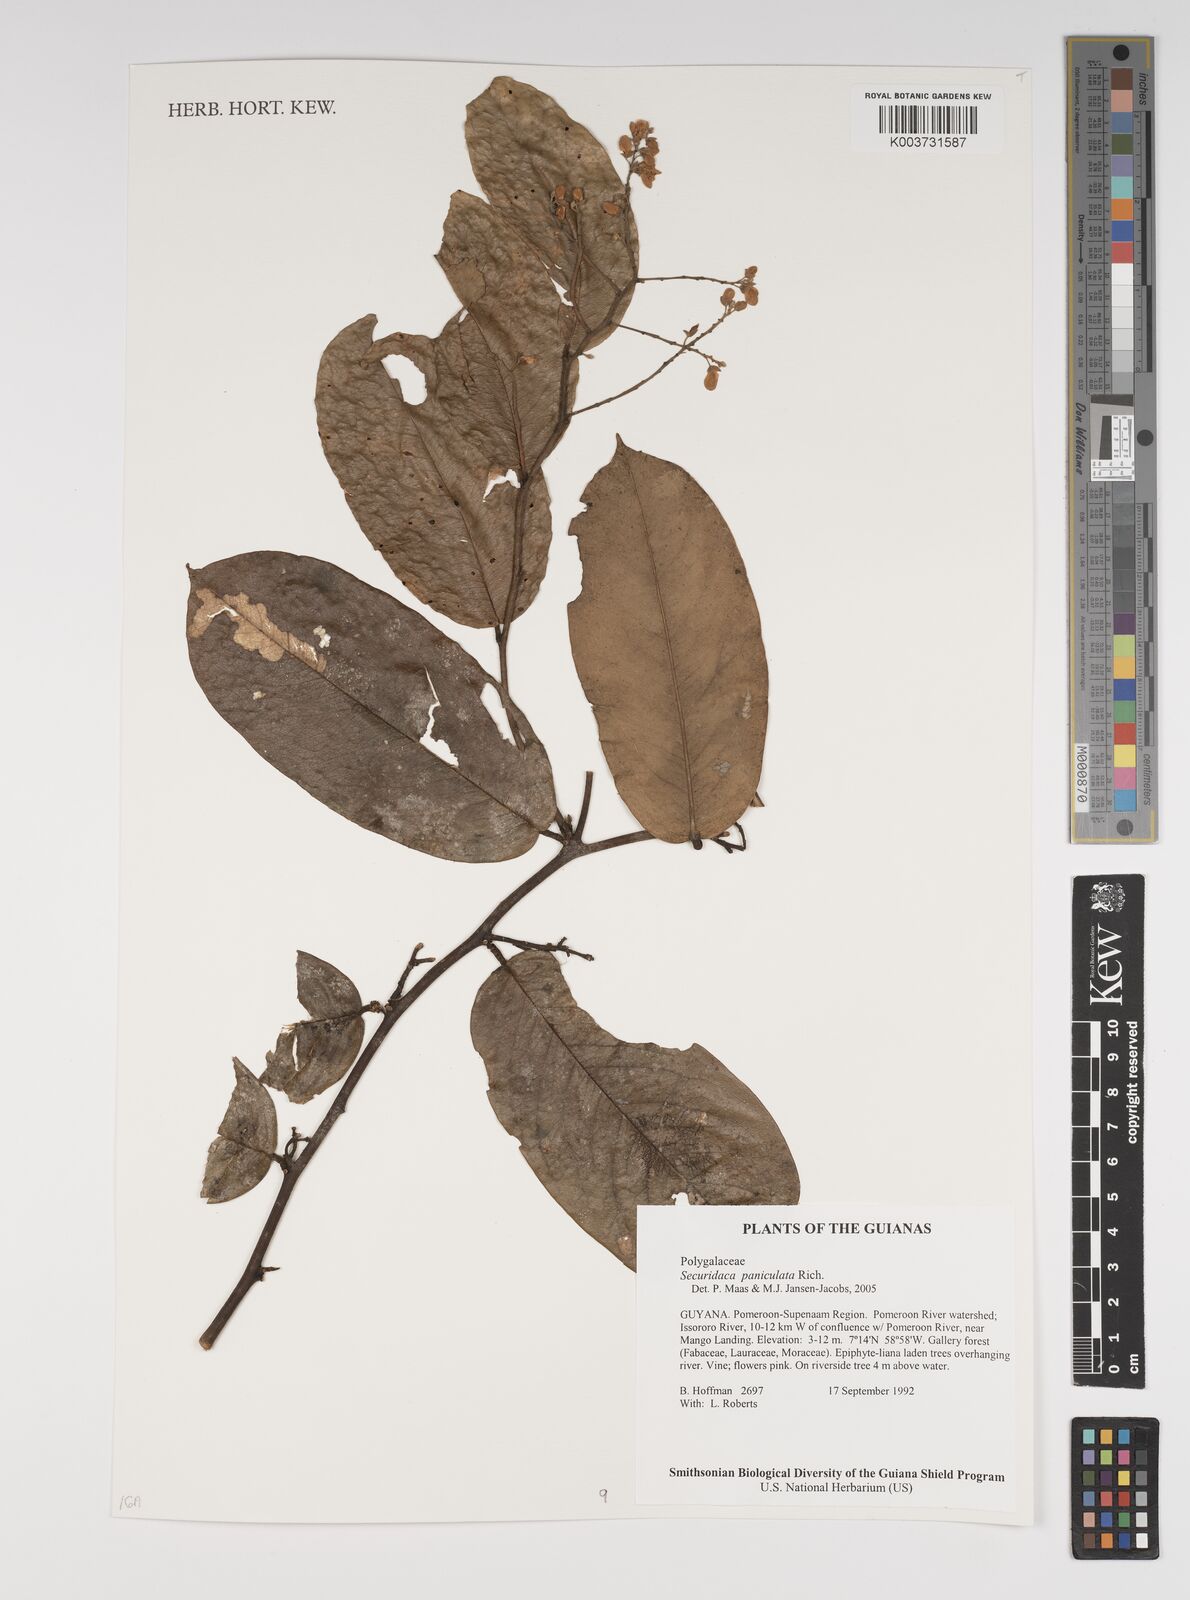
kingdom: Plantae
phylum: Tracheophyta
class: Magnoliopsida
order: Fabales
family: Polygalaceae
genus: Securidaca
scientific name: Securidaca paniculata
